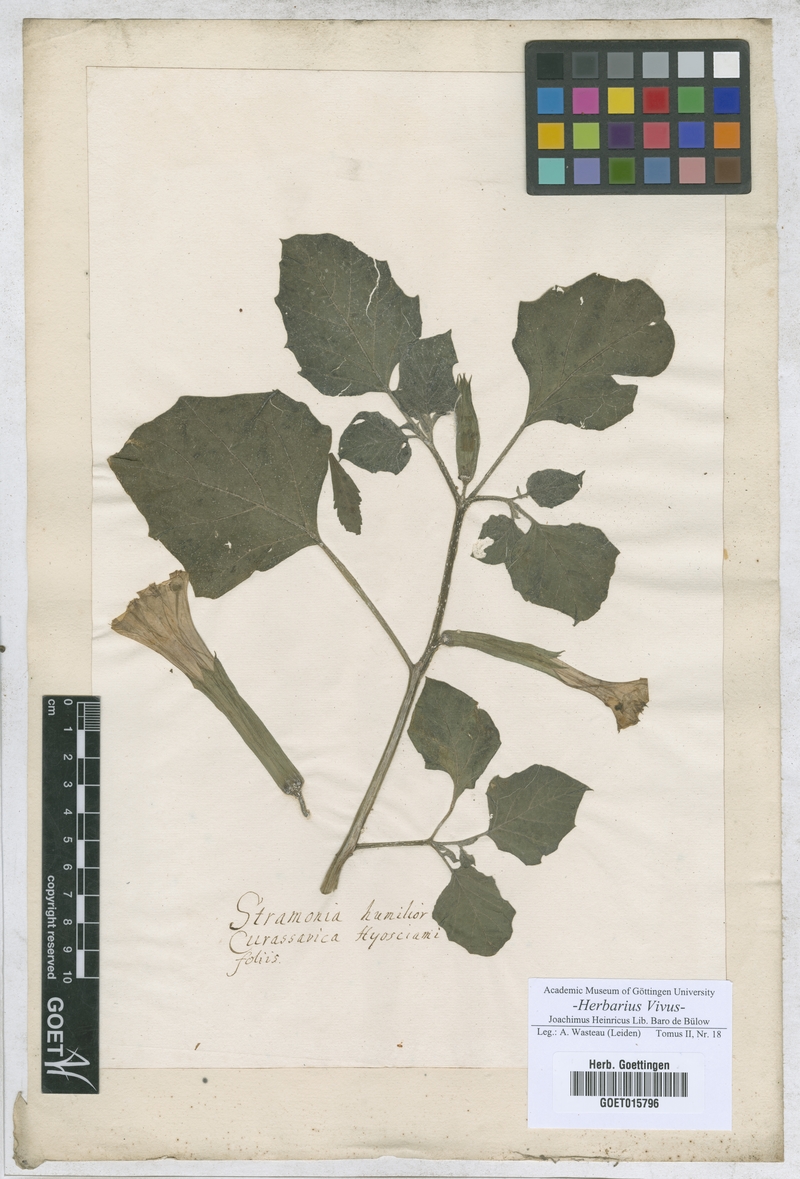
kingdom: Plantae
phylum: Tracheophyta
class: Magnoliopsida
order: Asterales
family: Asteraceae
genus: Pulicaria
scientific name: Pulicaria
